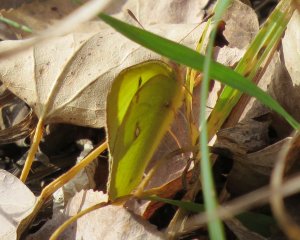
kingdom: Animalia
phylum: Arthropoda
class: Insecta
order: Lepidoptera
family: Pieridae
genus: Colias
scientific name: Colias philodice
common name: Clouded Sulphur
